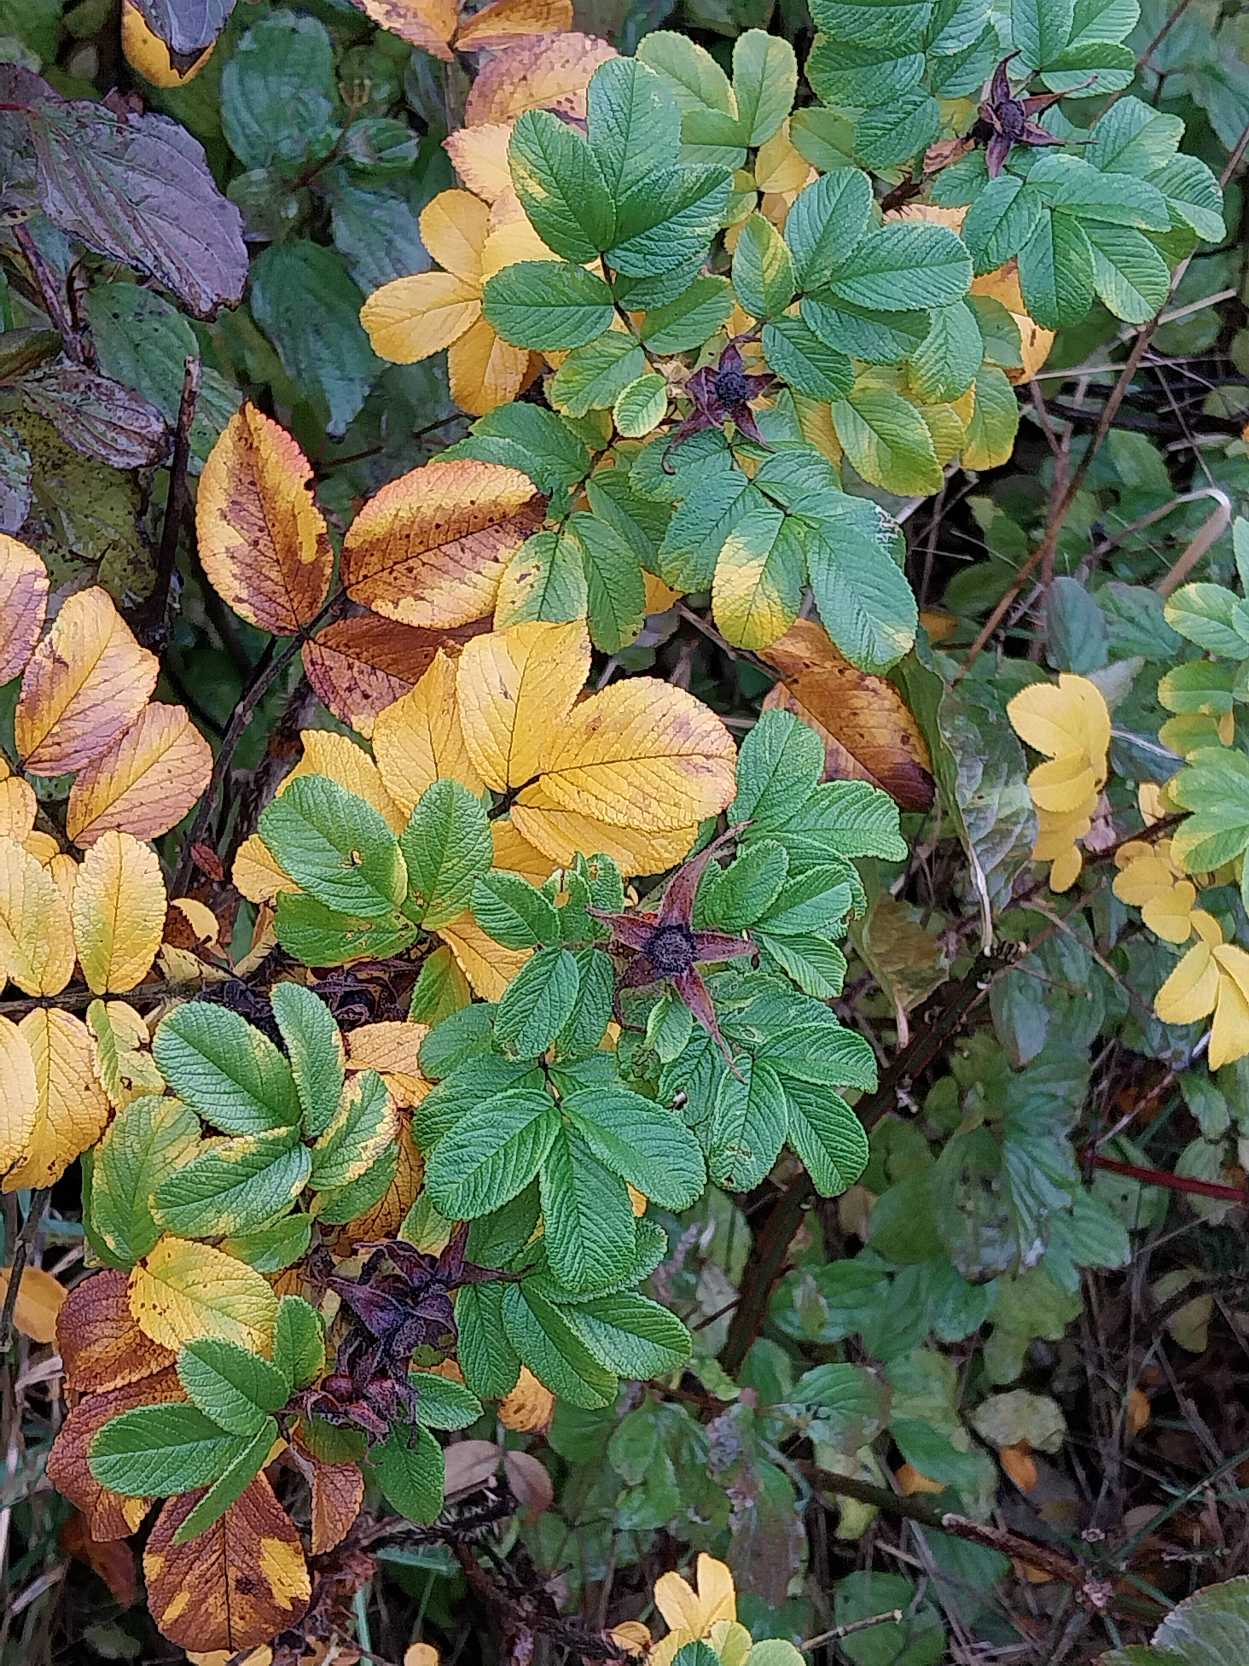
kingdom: Plantae
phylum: Tracheophyta
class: Magnoliopsida
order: Rosales
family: Rosaceae
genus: Rosa
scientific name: Rosa rugosa
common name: Rynket rose
